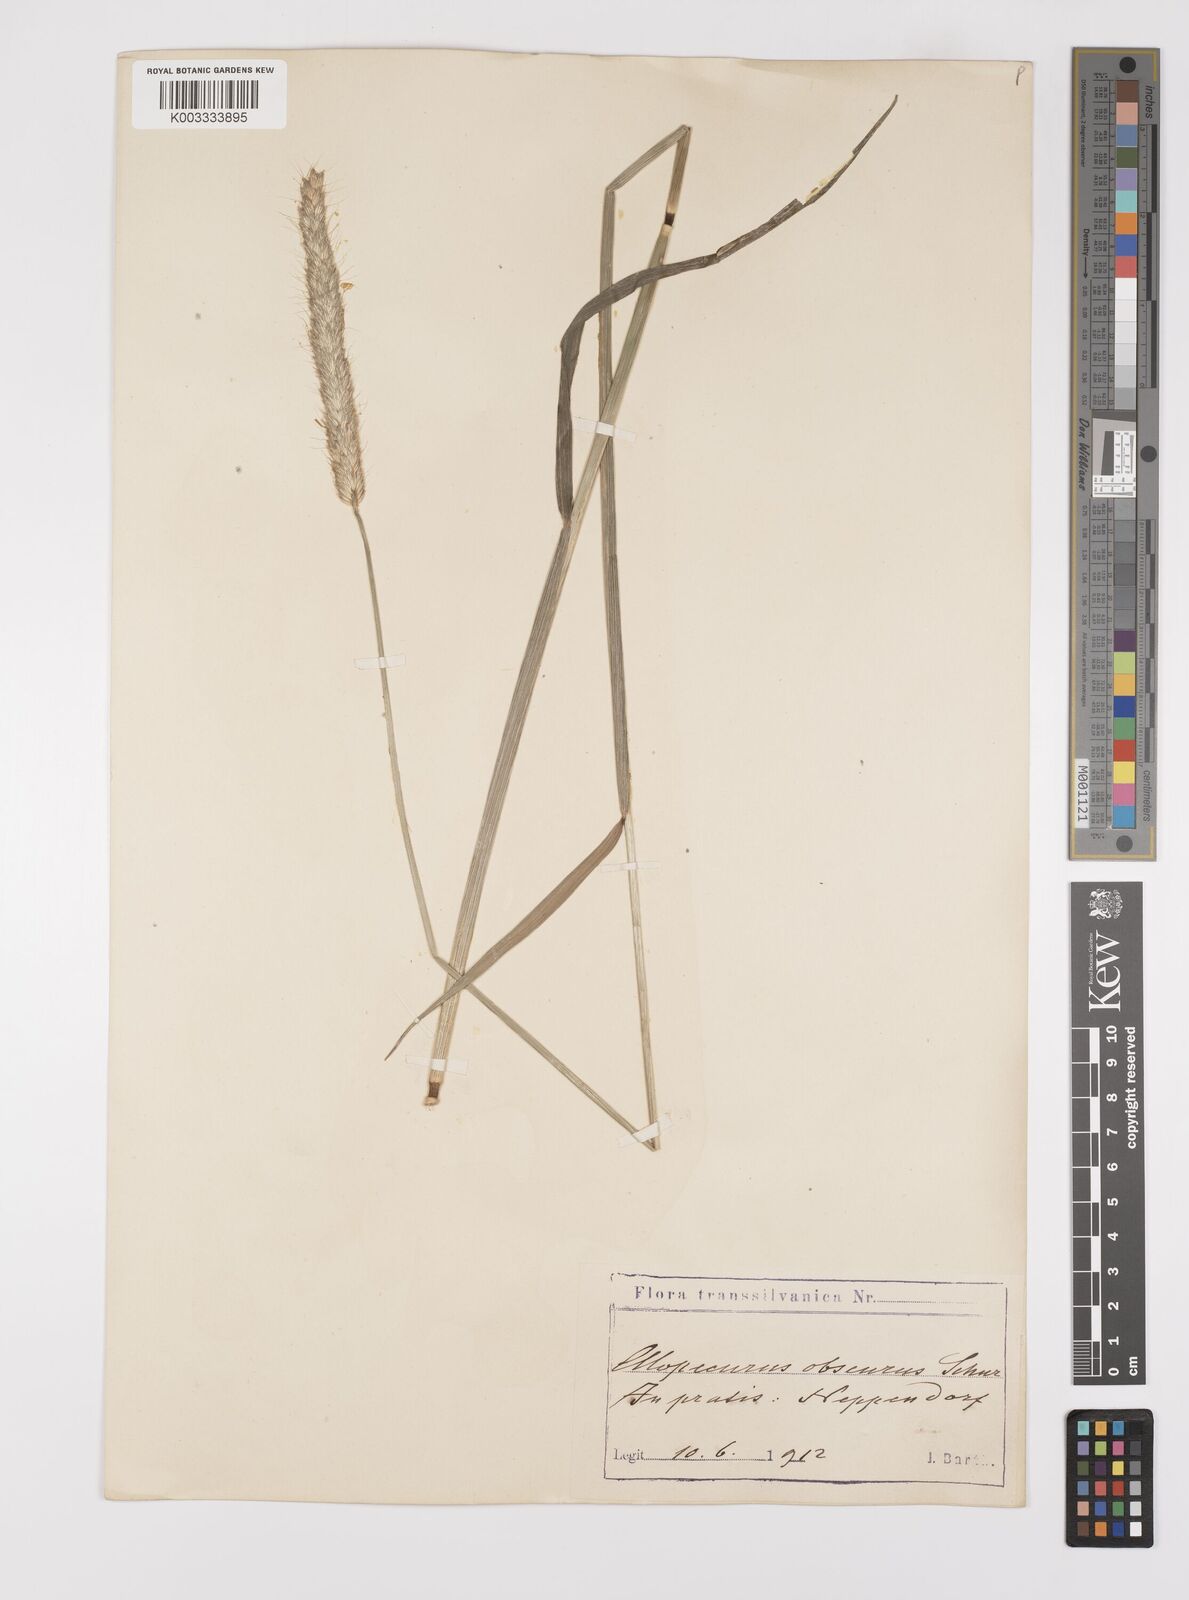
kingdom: Plantae
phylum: Tracheophyta
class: Liliopsida
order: Poales
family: Poaceae
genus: Alopecurus
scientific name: Alopecurus pratensis
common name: Meadow foxtail
